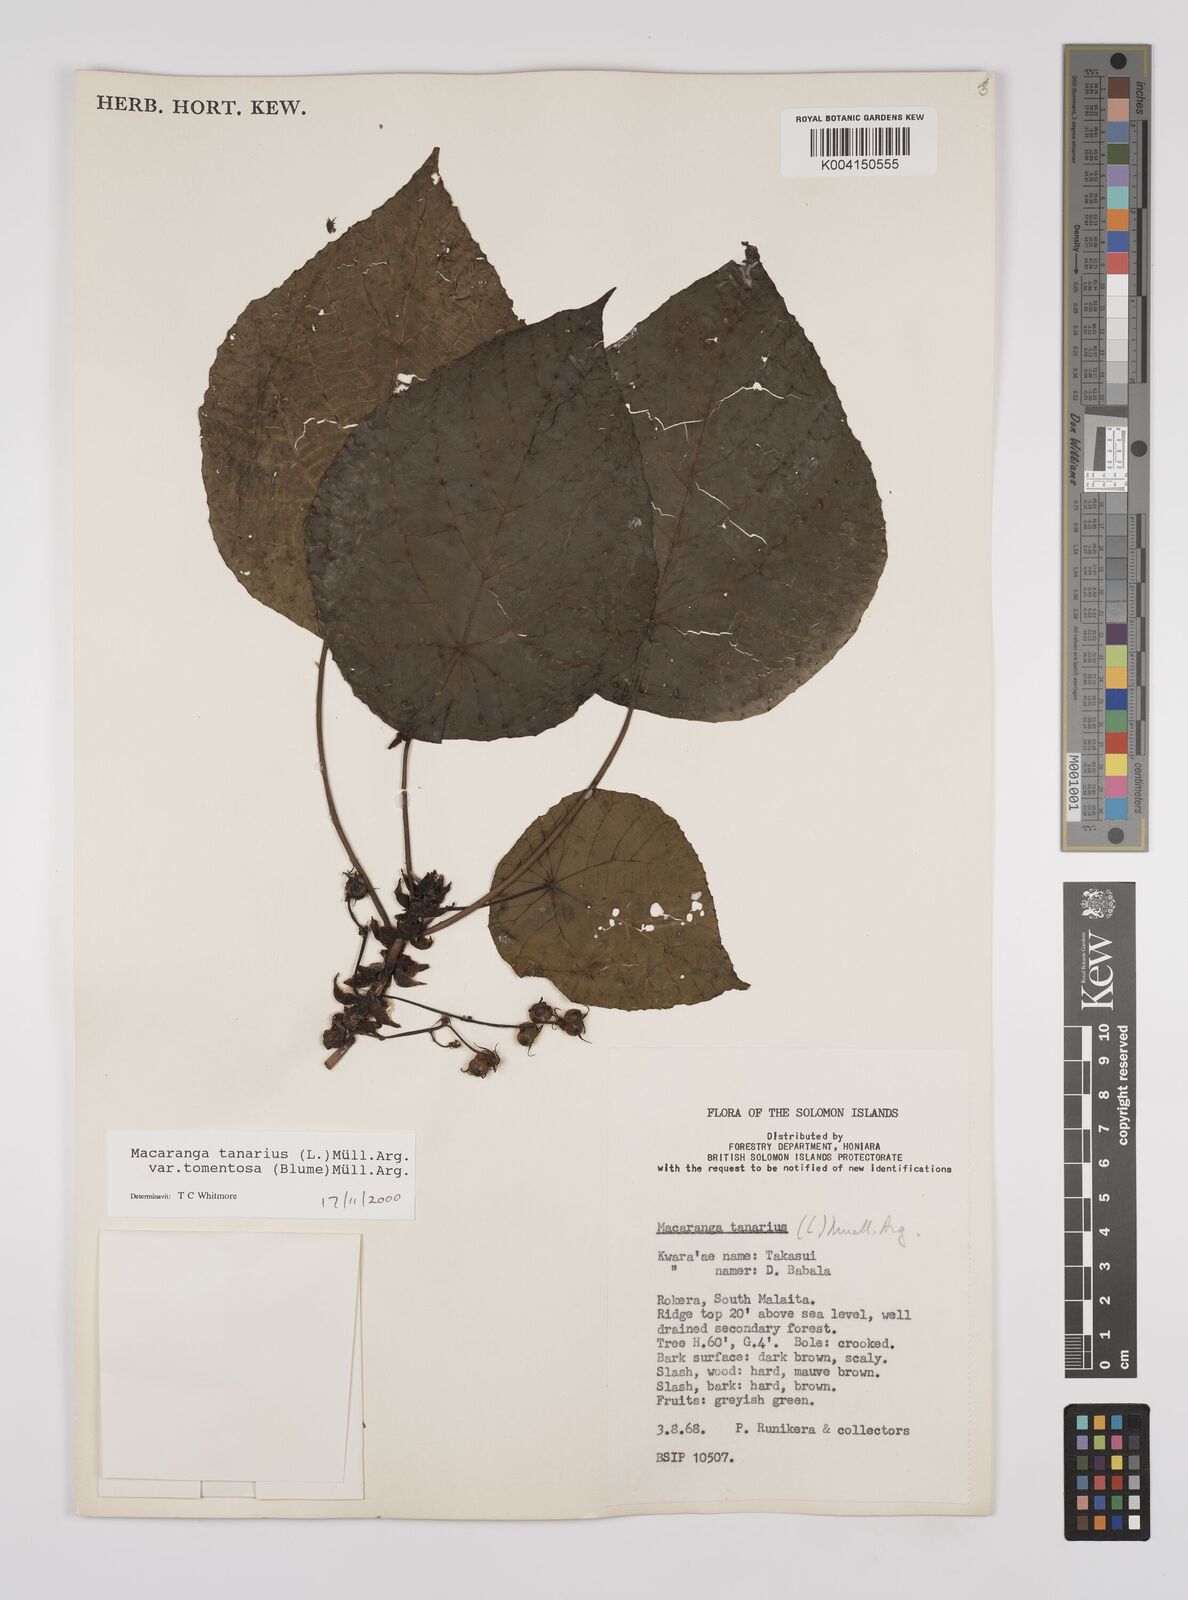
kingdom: Plantae
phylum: Tracheophyta
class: Magnoliopsida
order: Malpighiales
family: Euphorbiaceae
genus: Macaranga
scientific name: Macaranga tanarius
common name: Parasol leaf tree
